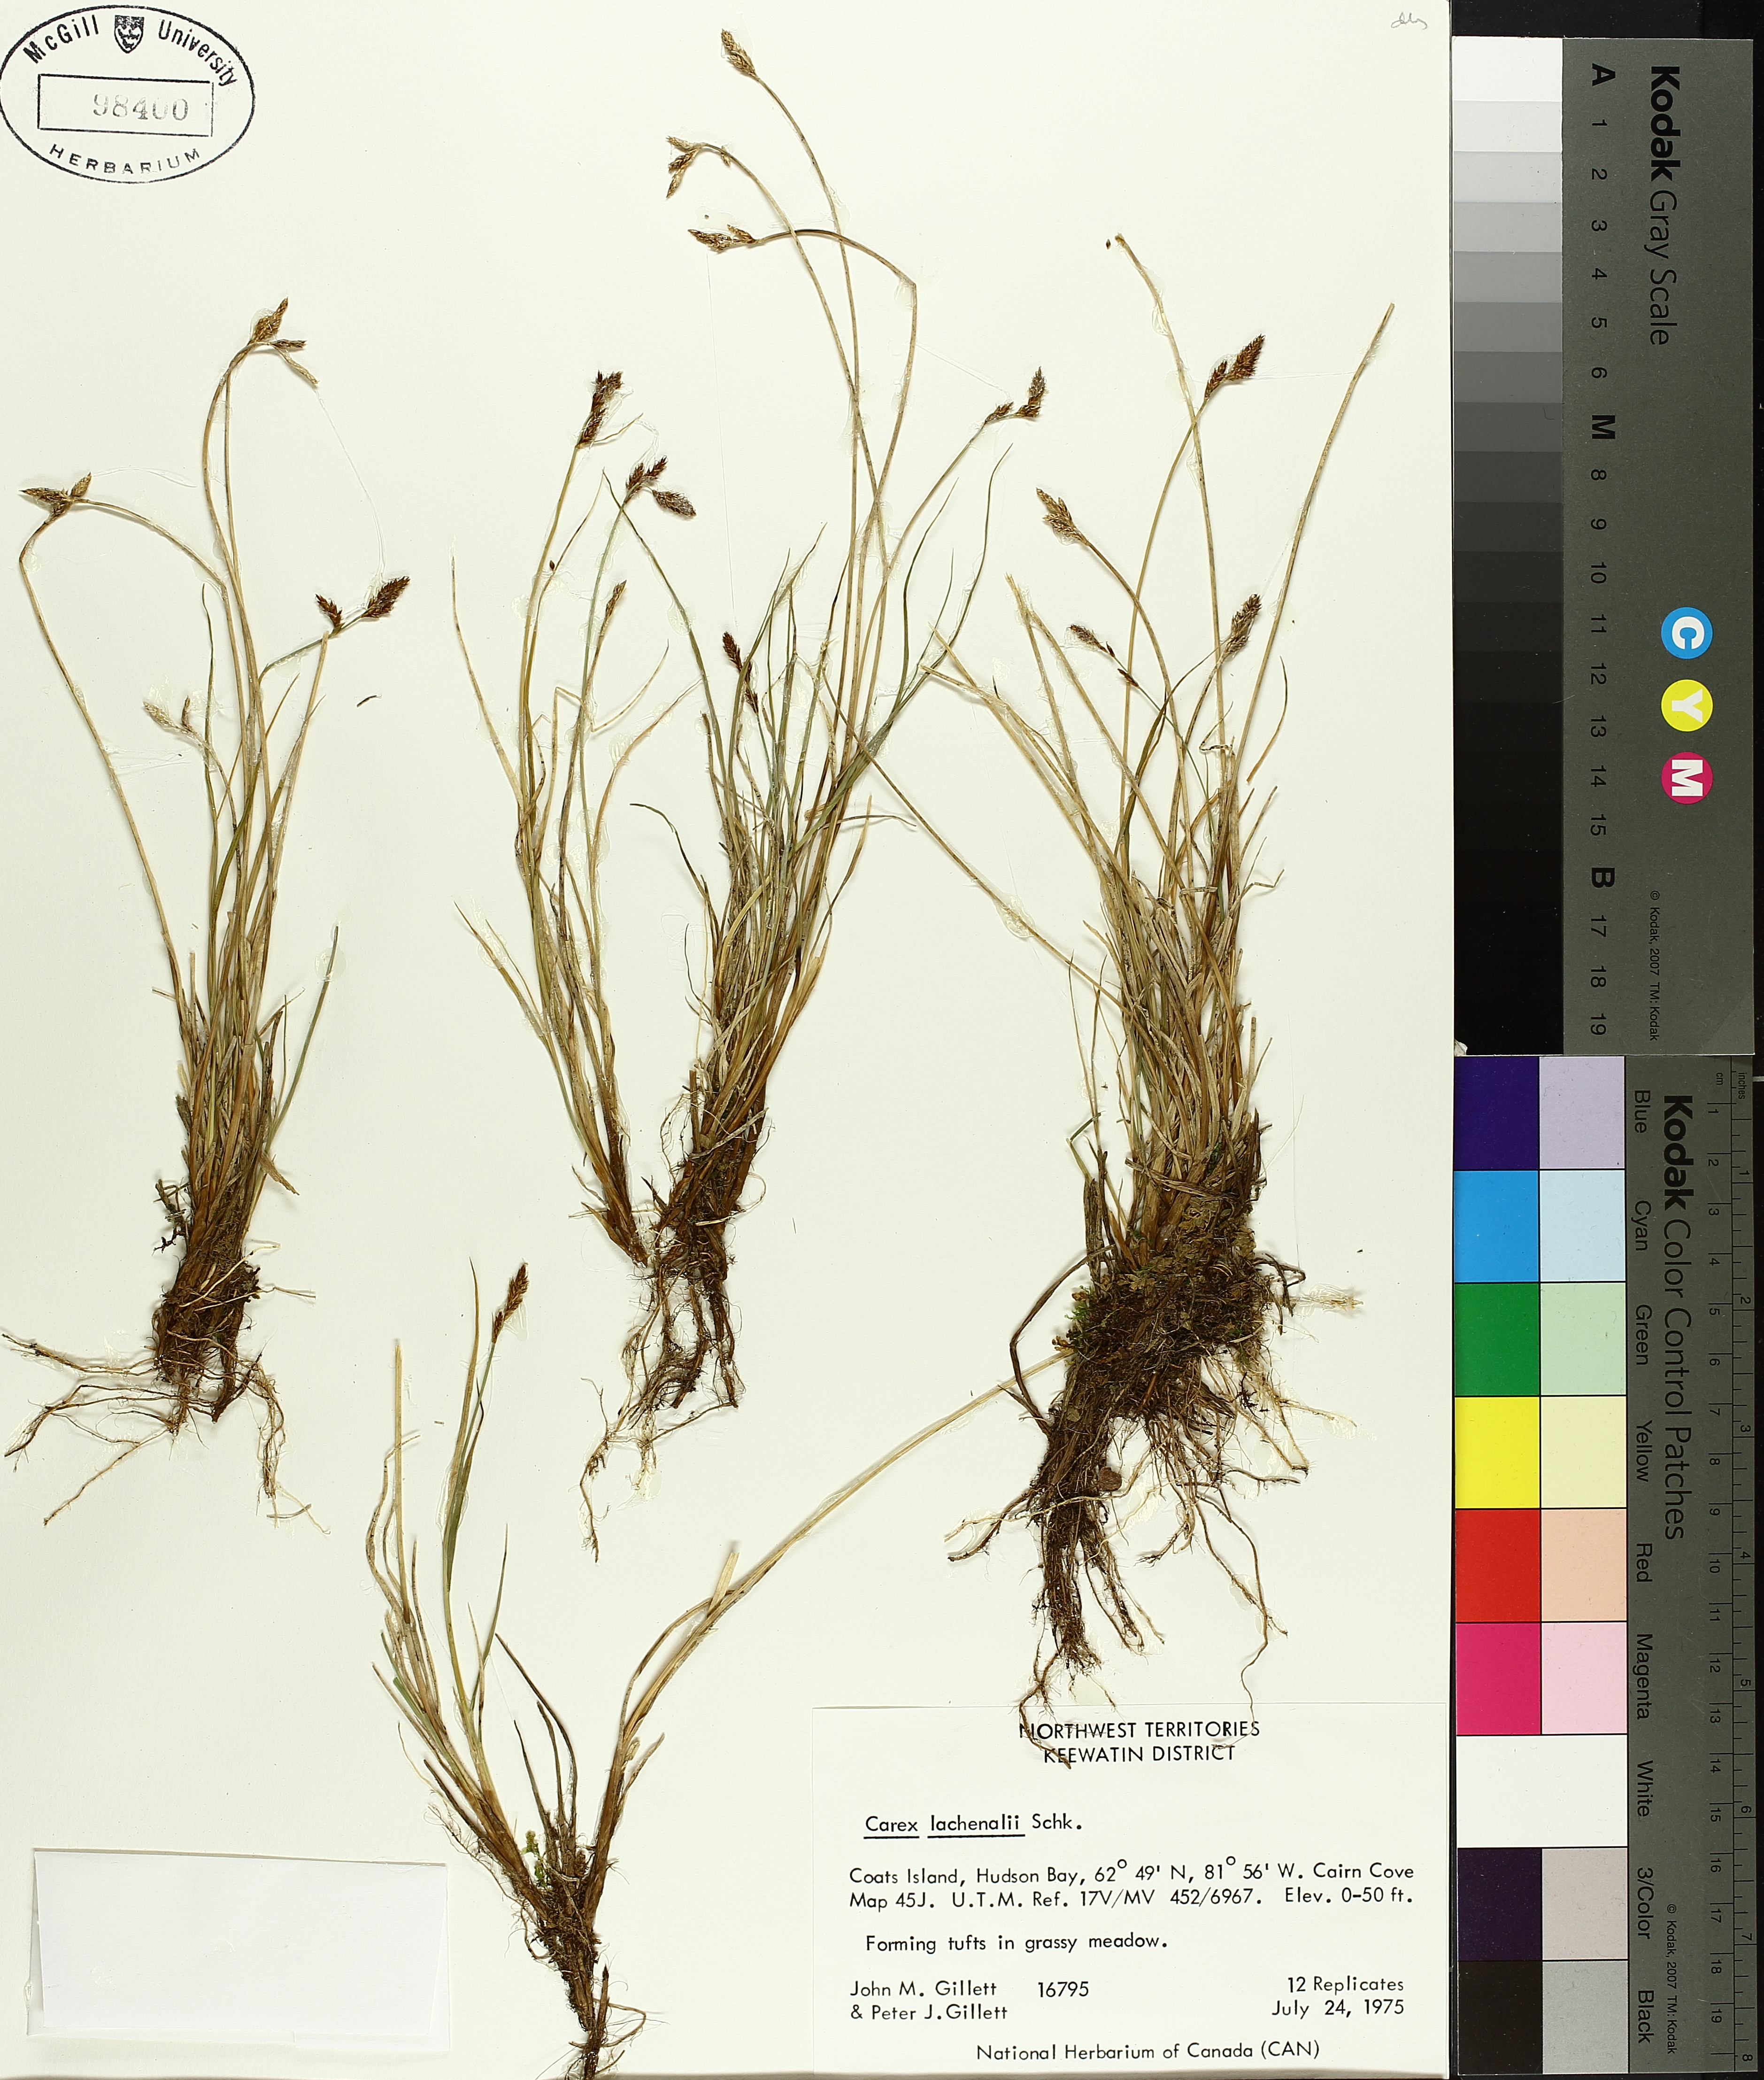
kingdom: Plantae
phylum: Tracheophyta
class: Liliopsida
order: Poales
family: Cyperaceae
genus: Carex
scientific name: Carex lachenalii
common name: Hare's-foot sedge
